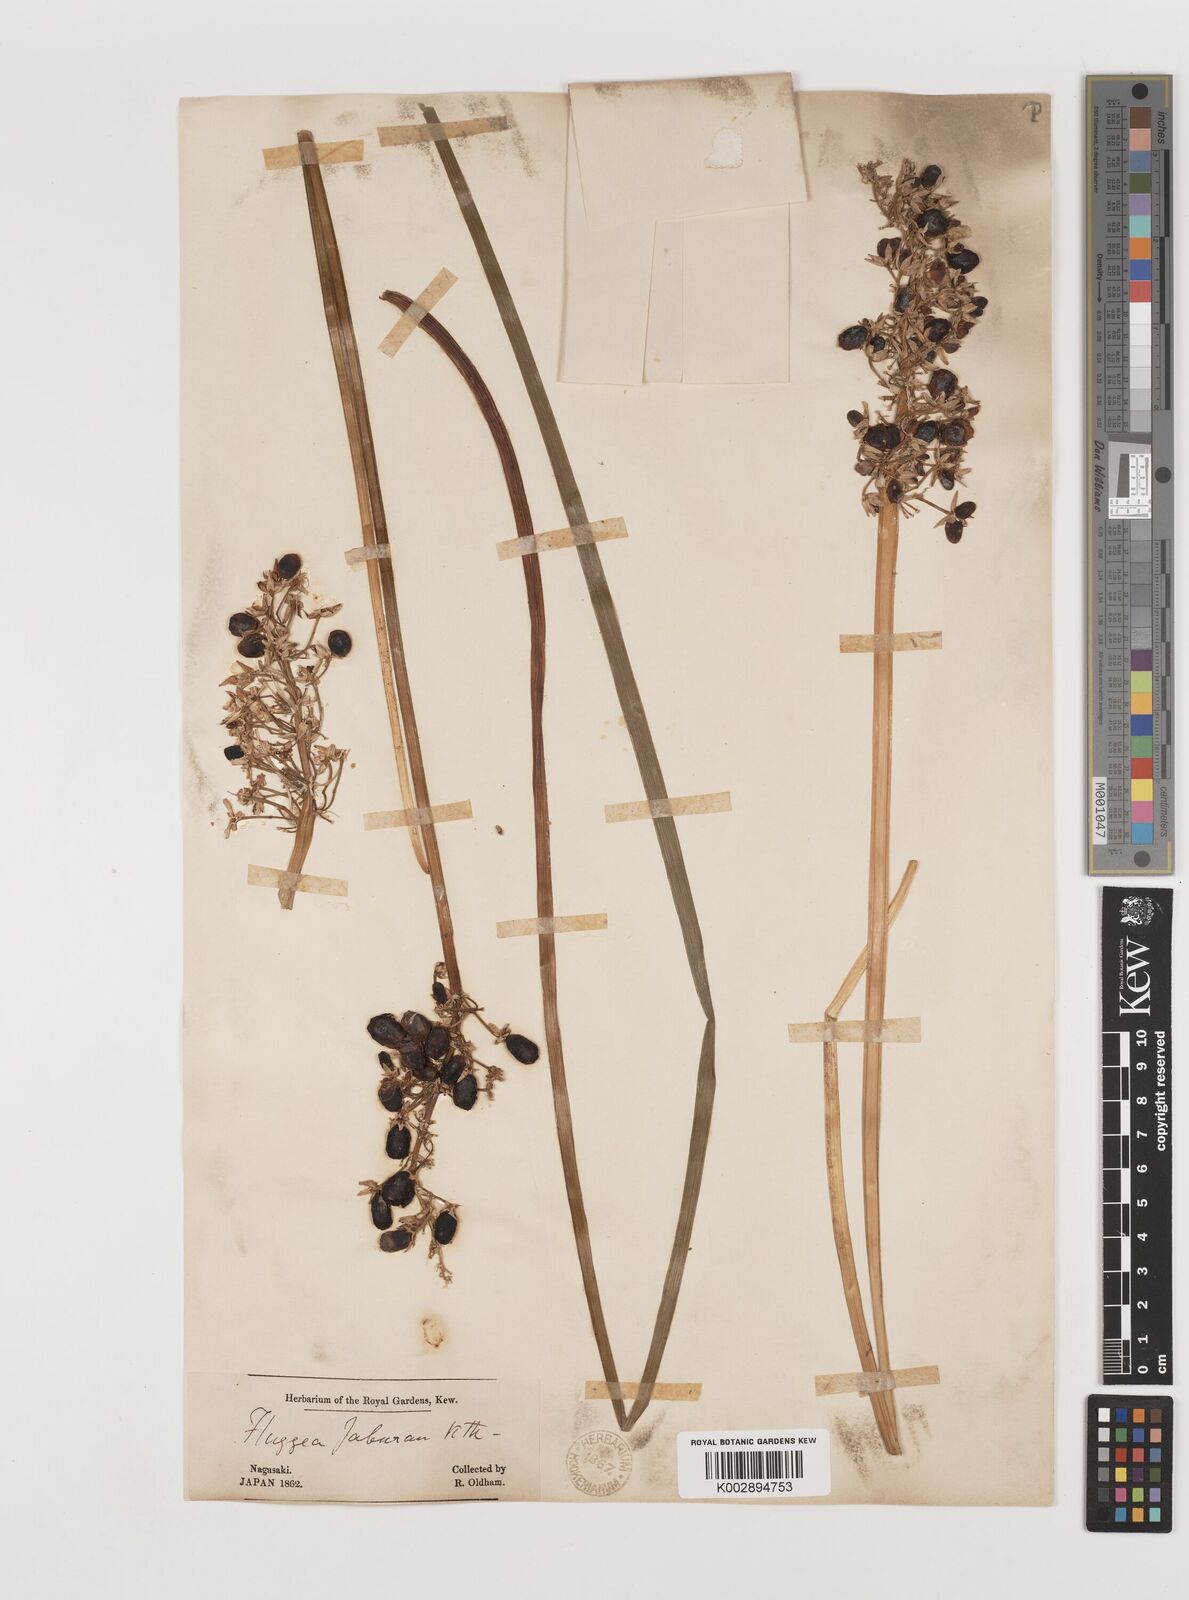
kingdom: Plantae
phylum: Tracheophyta
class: Liliopsida
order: Asparagales
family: Asparagaceae
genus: Ophiopogon
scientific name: Ophiopogon jaburan
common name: Lilyturf
